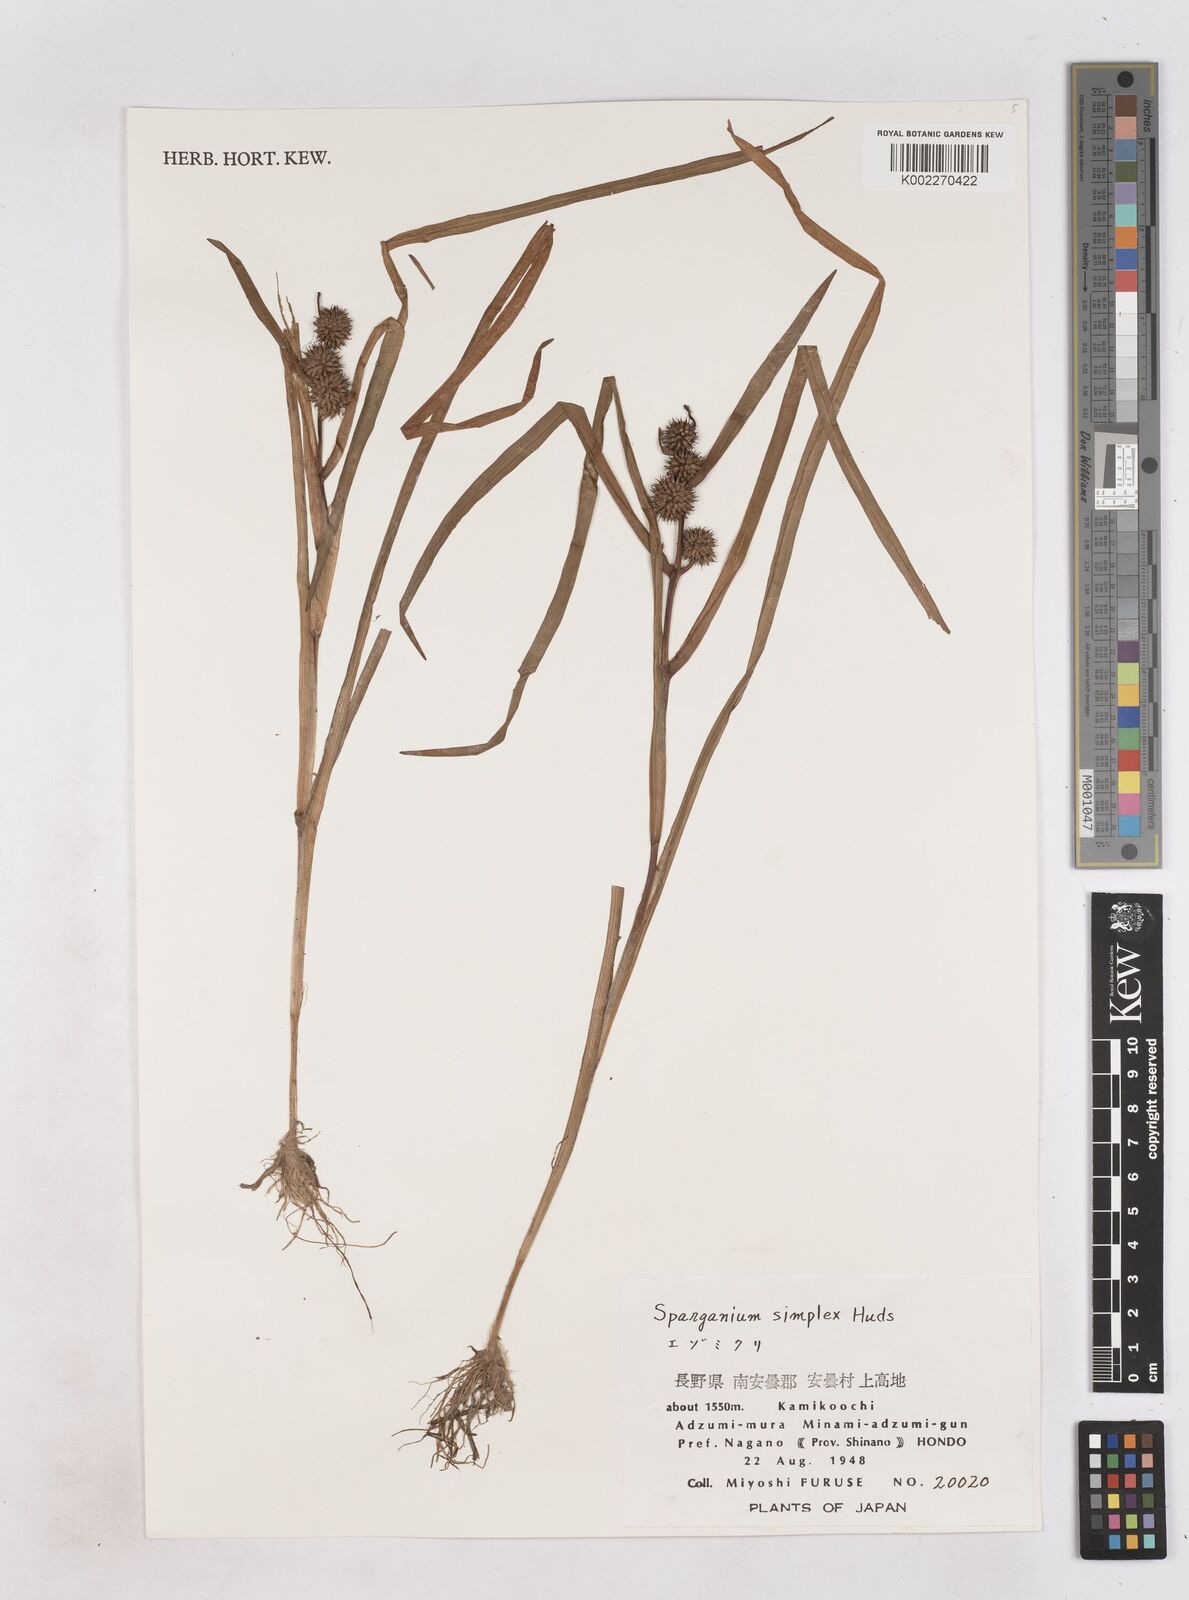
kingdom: Plantae
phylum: Tracheophyta
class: Liliopsida
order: Poales
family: Typhaceae
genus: Sparganium
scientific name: Sparganium emersum
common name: Unbranched bur-reed
